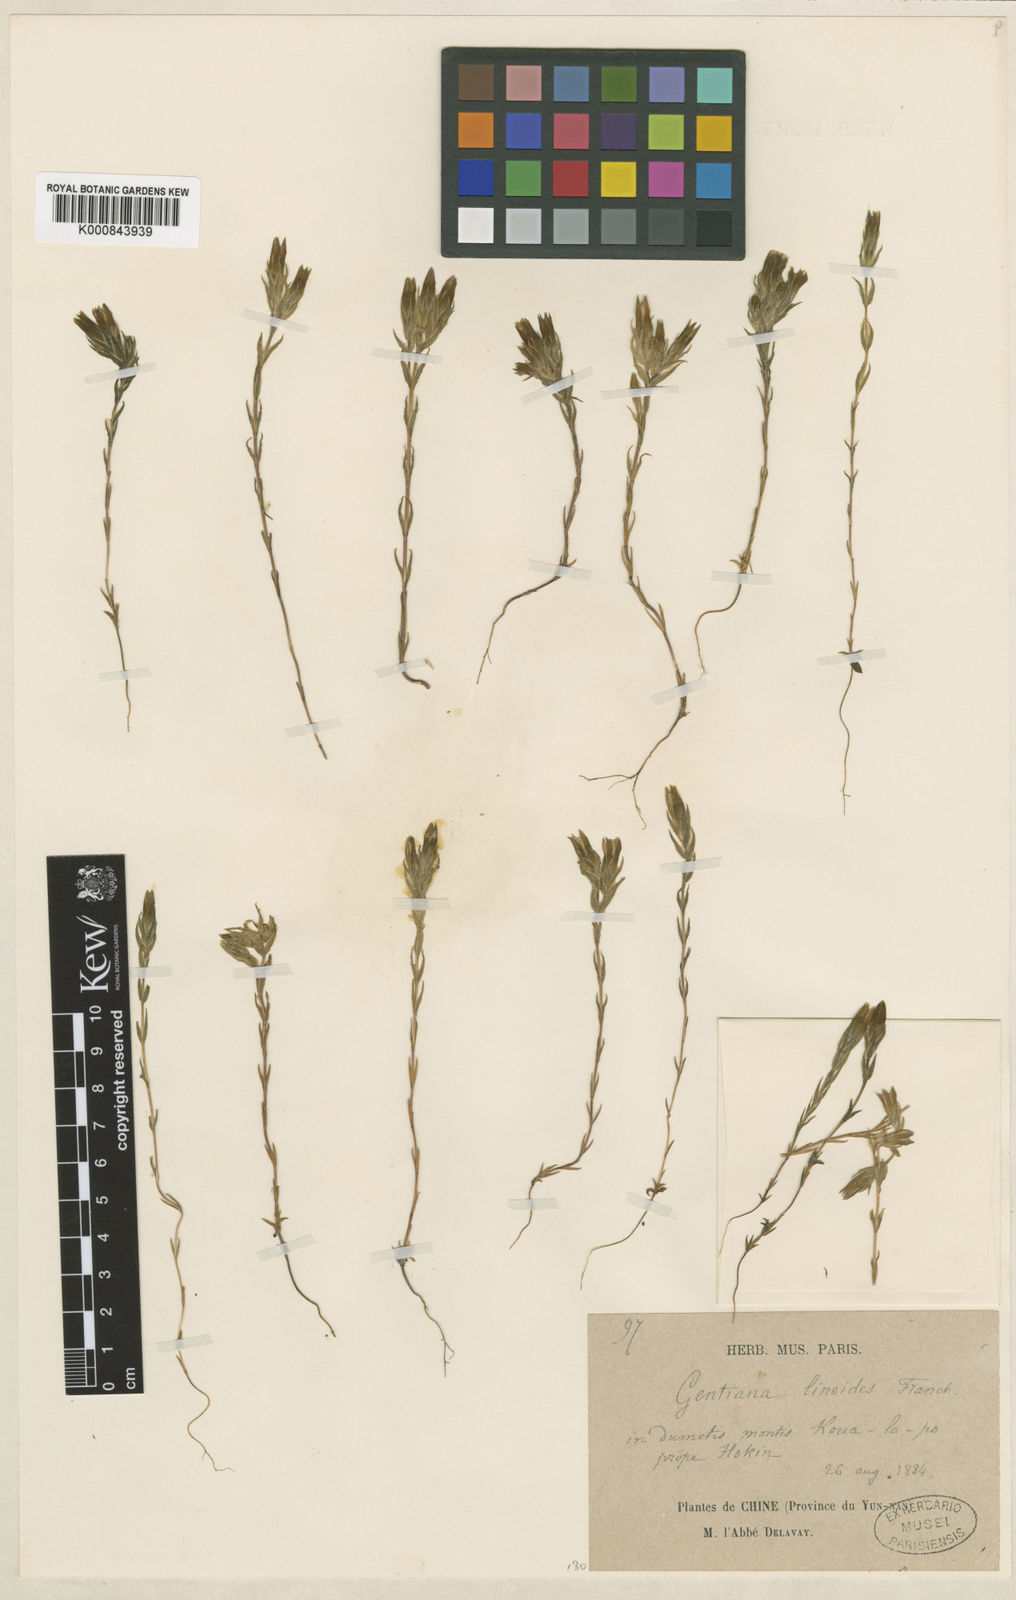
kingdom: Plantae
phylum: Tracheophyta
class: Magnoliopsida
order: Gentianales
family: Gentianaceae
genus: Gentiana
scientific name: Gentiana linoides
